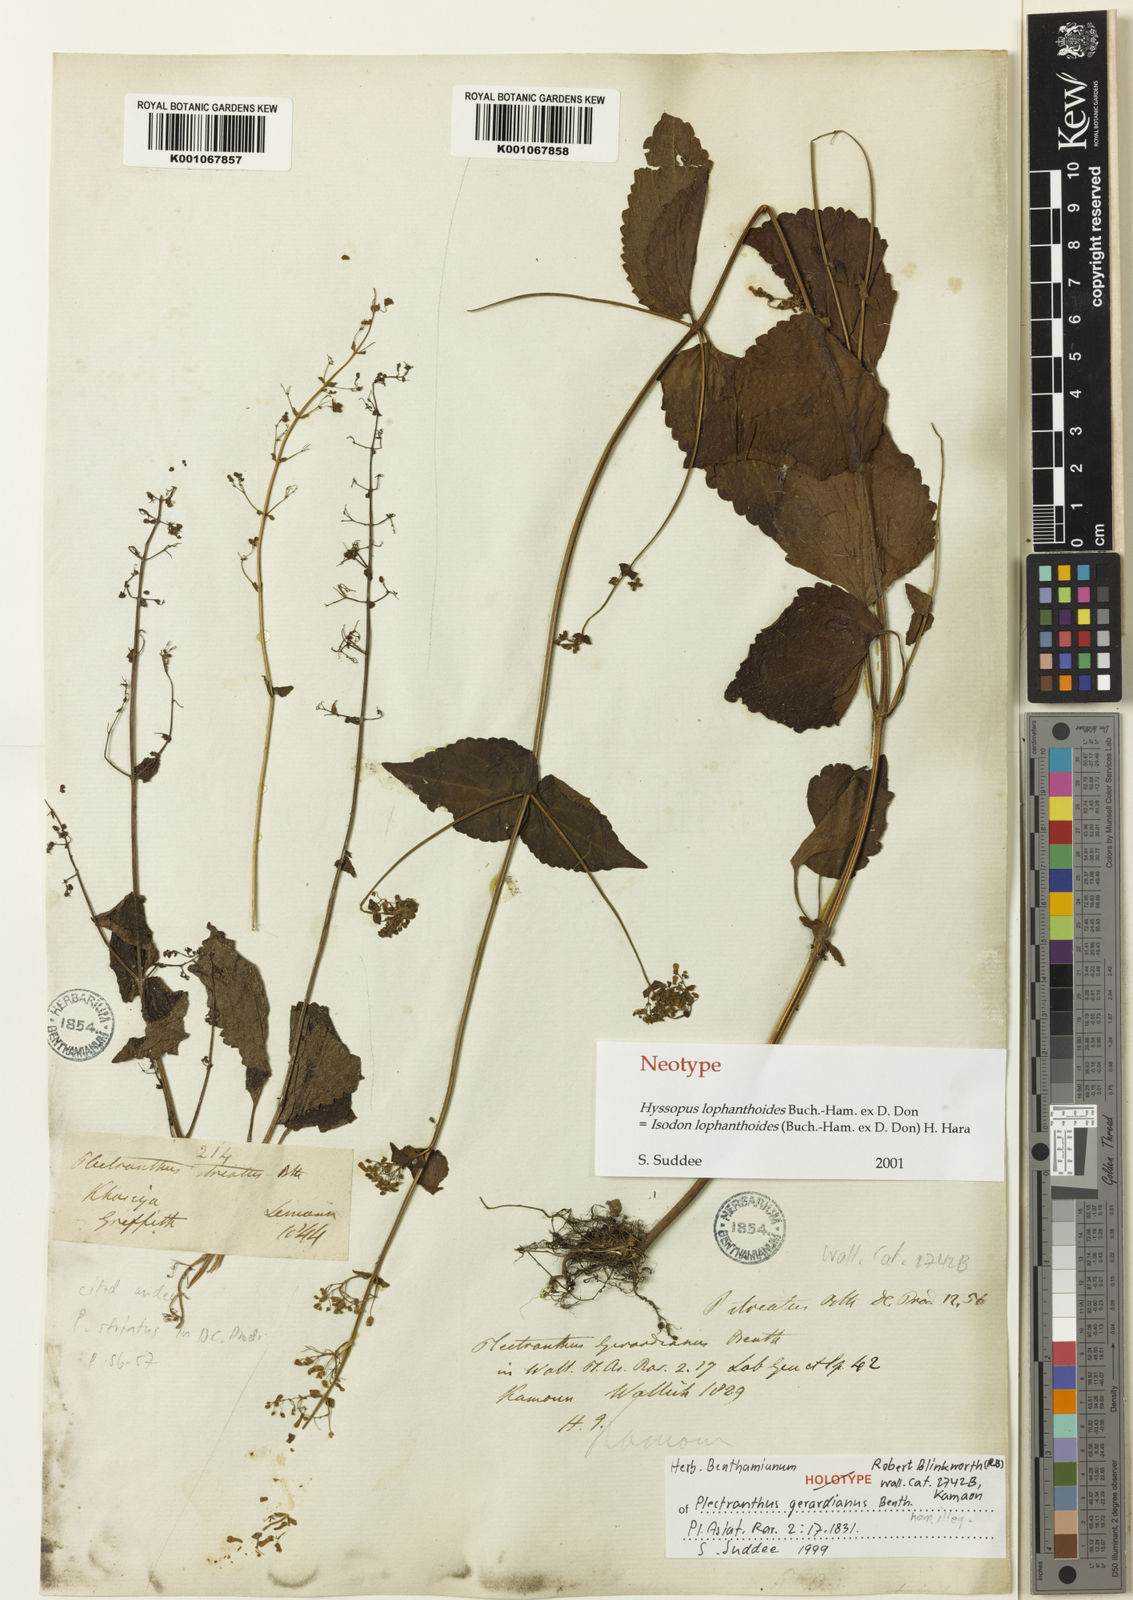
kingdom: Plantae
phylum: Tracheophyta
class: Magnoliopsida
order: Lamiales
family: Lamiaceae
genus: Isodon
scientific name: Isodon lophanthoides
